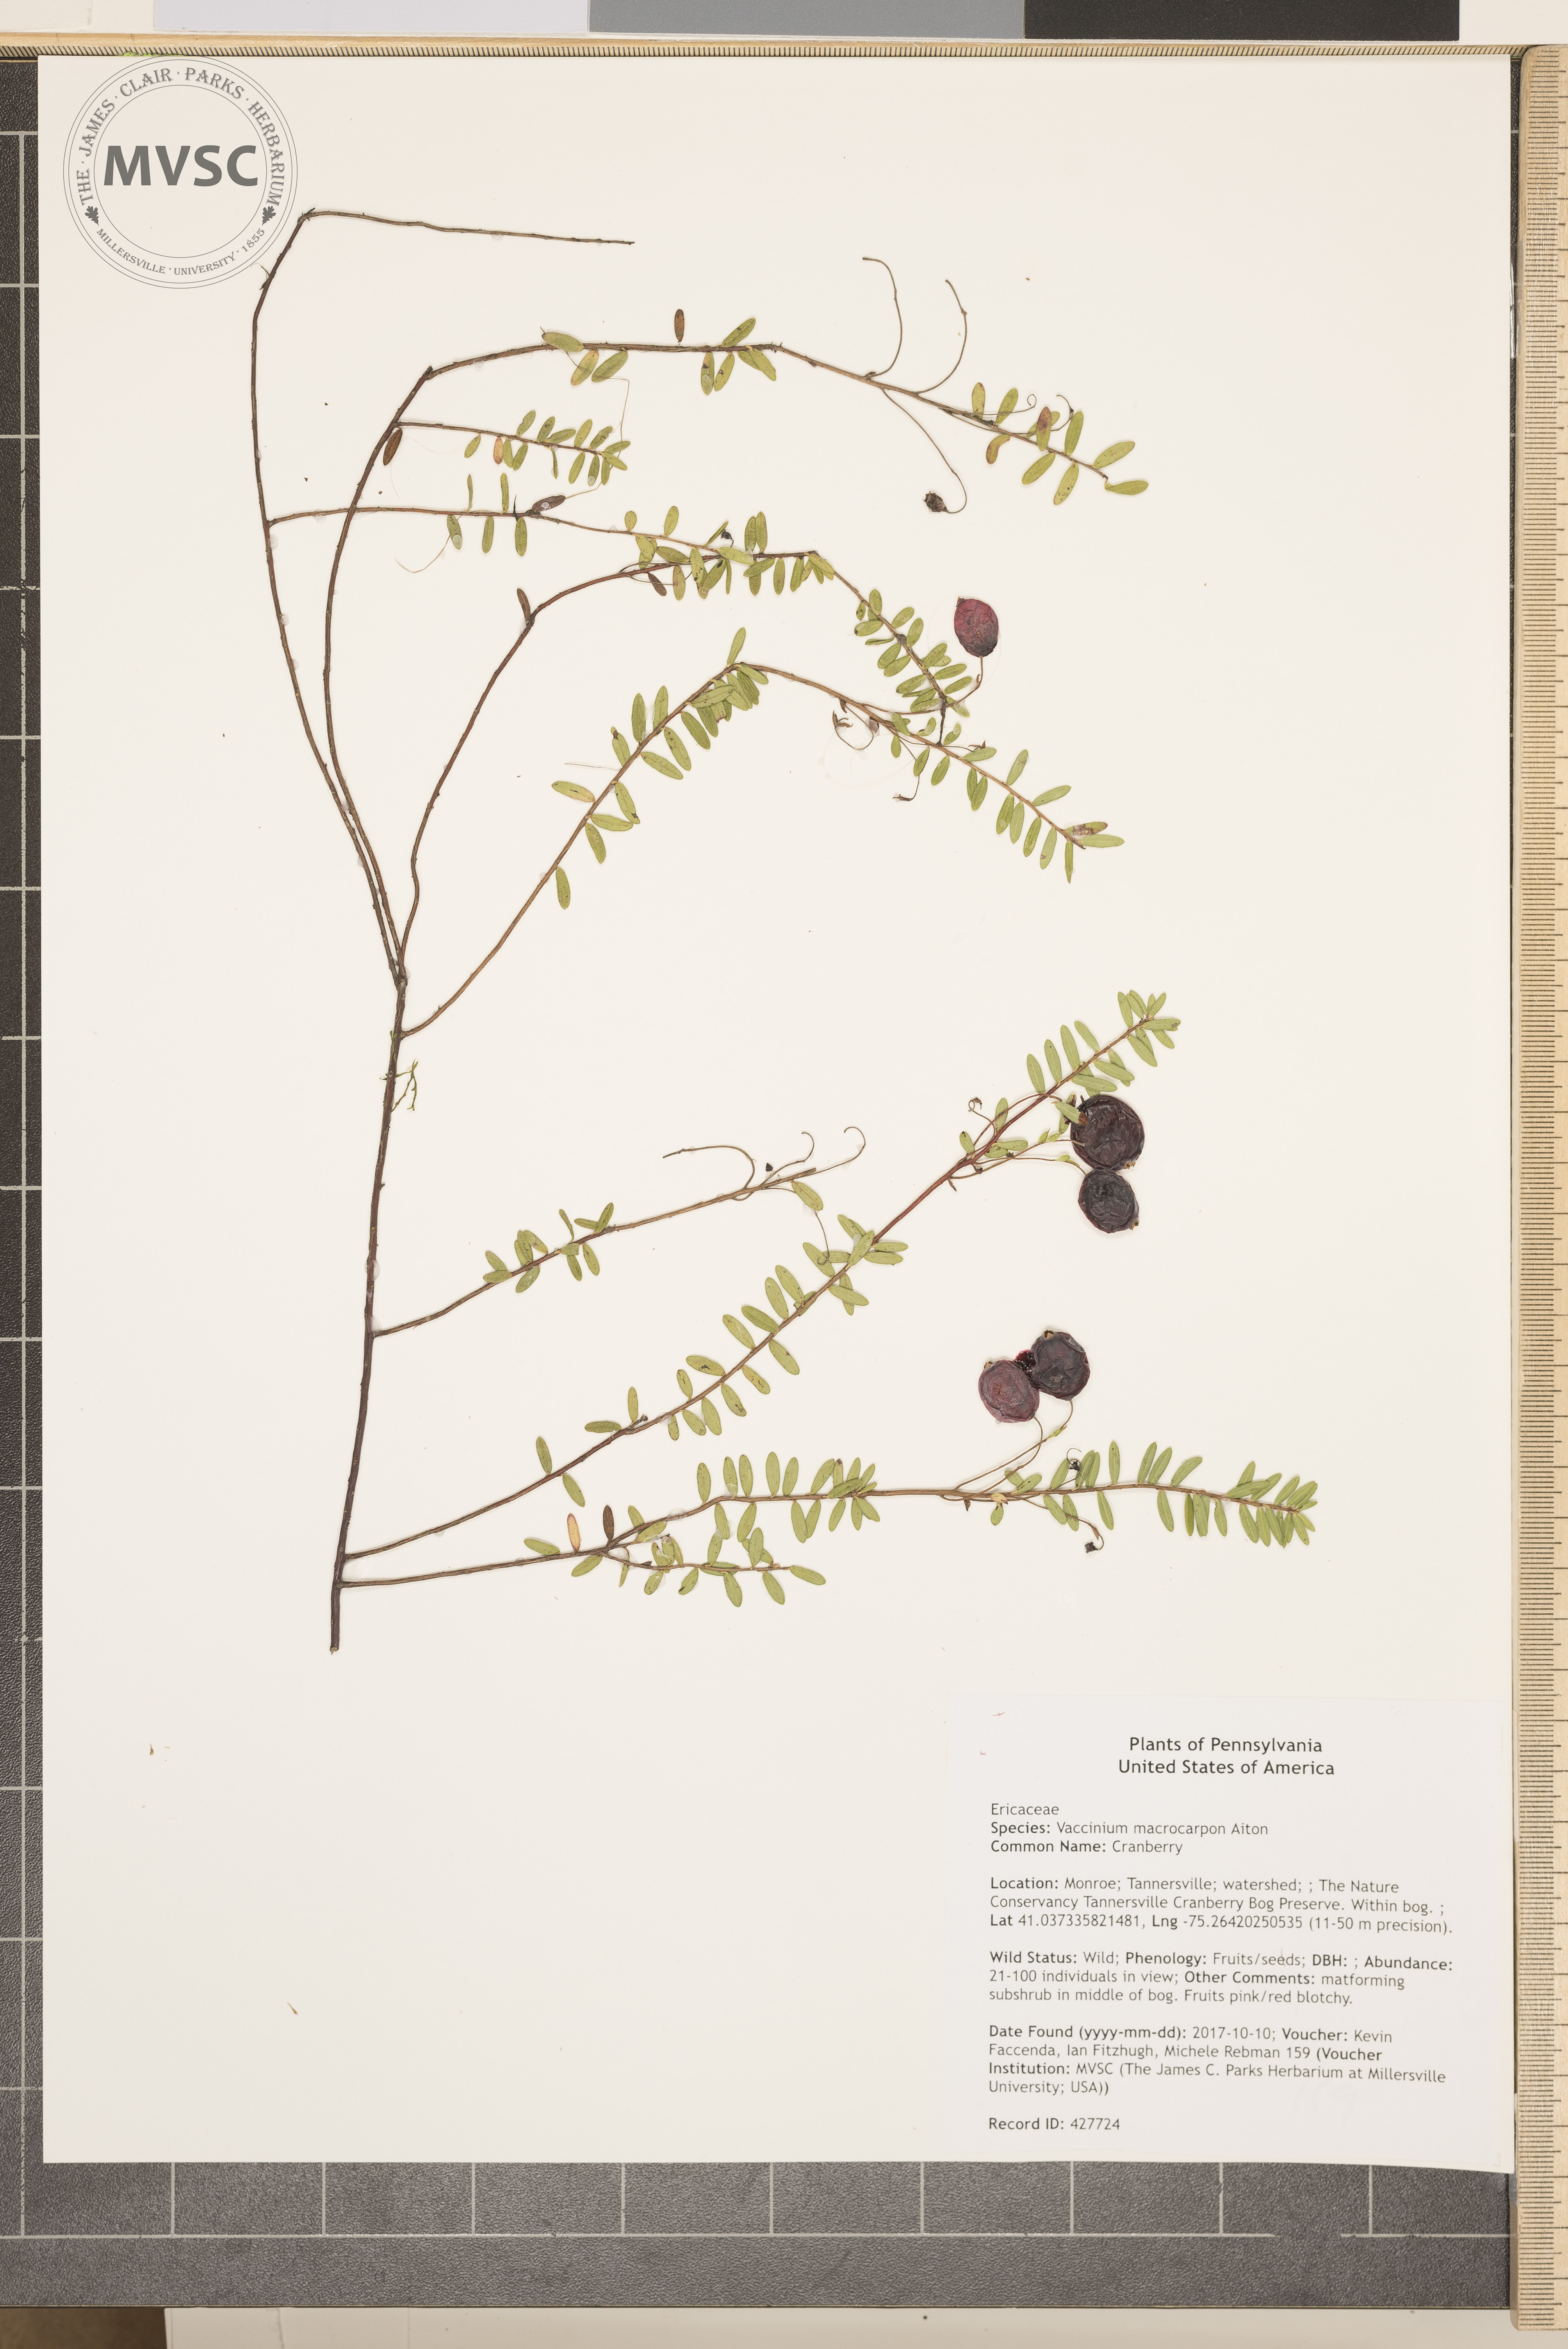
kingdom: Plantae
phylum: Tracheophyta
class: Magnoliopsida
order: Ericales
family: Ericaceae
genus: Vaccinium
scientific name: Vaccinium macrocarpon
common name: Cranberry
